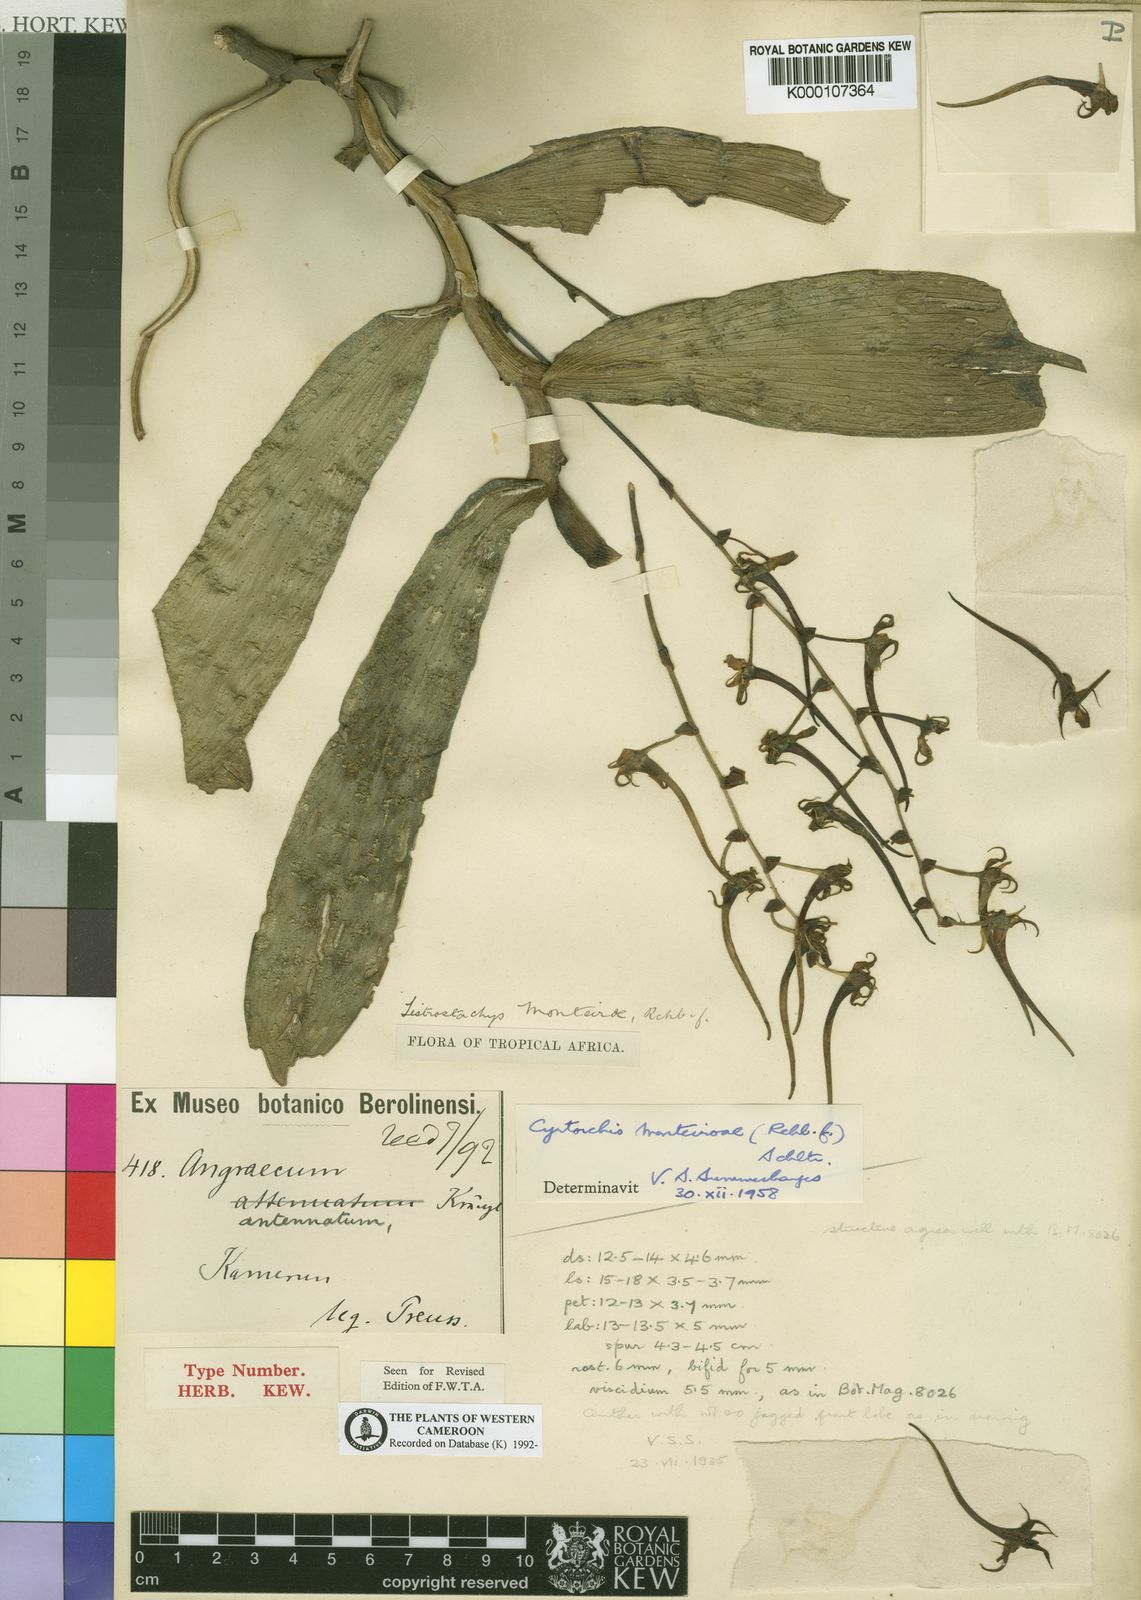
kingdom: Plantae
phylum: Tracheophyta
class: Liliopsida
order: Asparagales
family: Orchidaceae
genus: Cyrtorchis
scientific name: Cyrtorchis monteiroae
